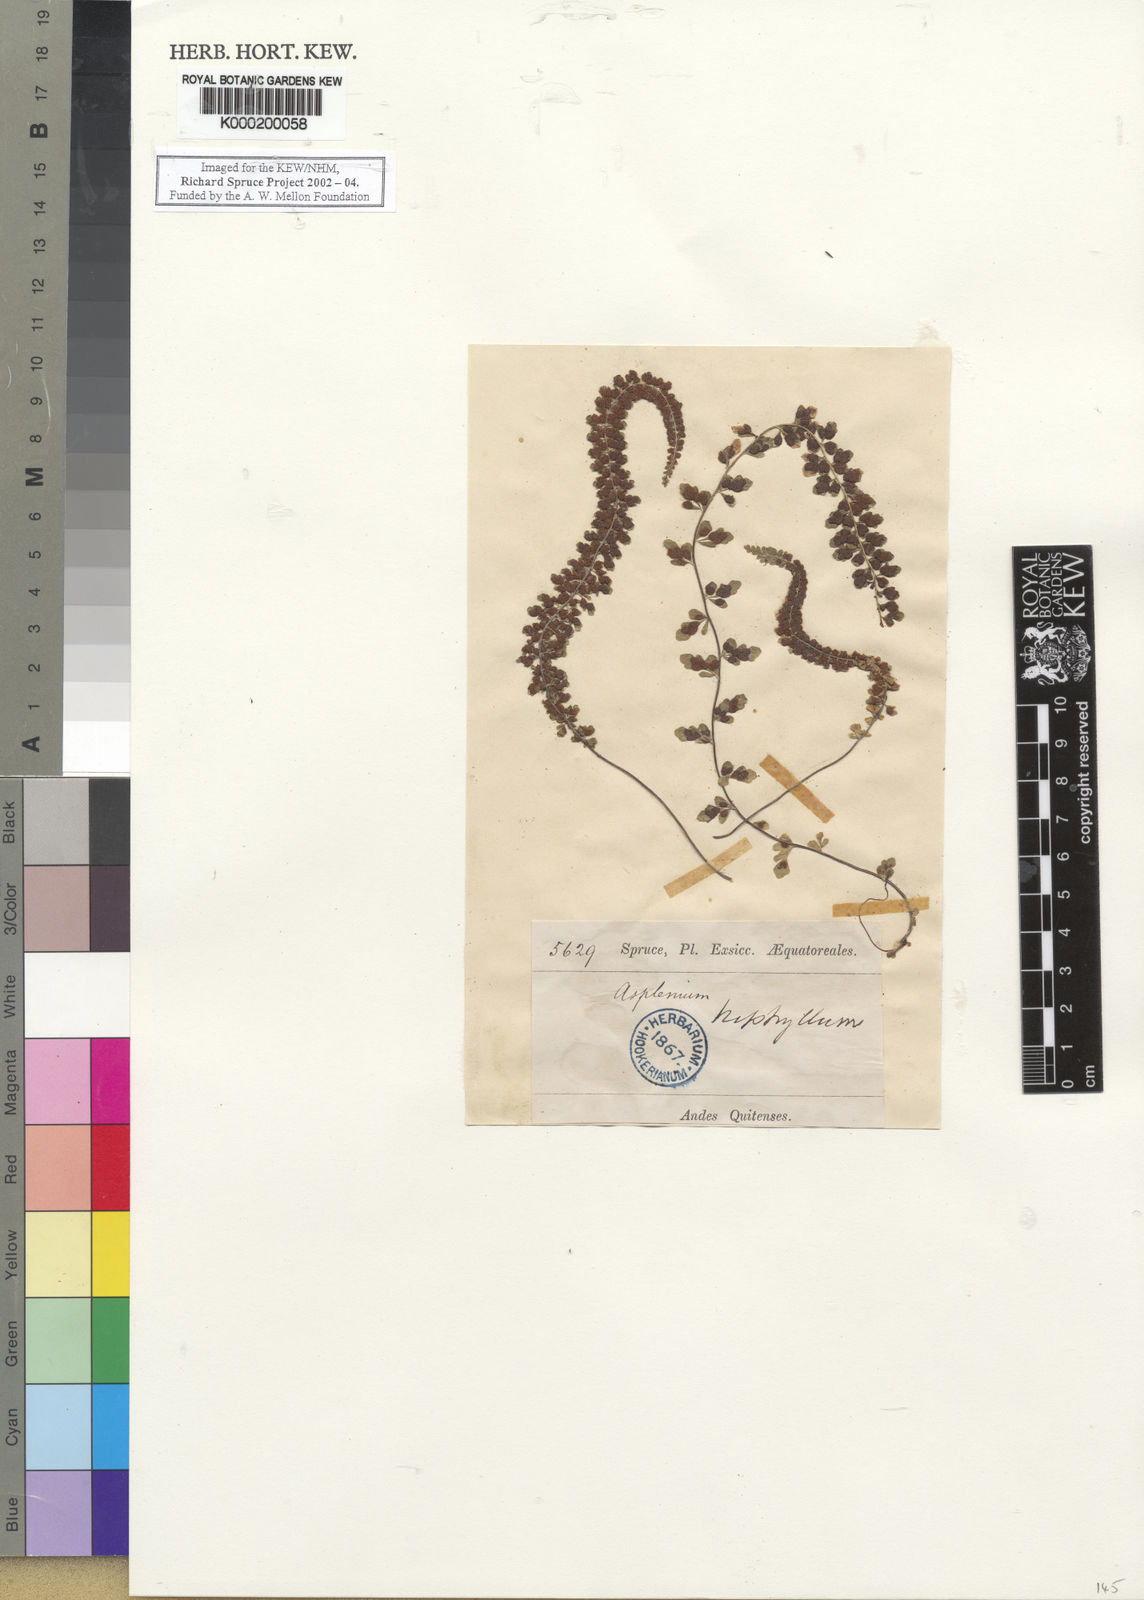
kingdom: Plantae
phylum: Tracheophyta
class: Polypodiopsida
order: Polypodiales
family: Aspleniaceae
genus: Asplenium
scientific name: Asplenium triphyllum
